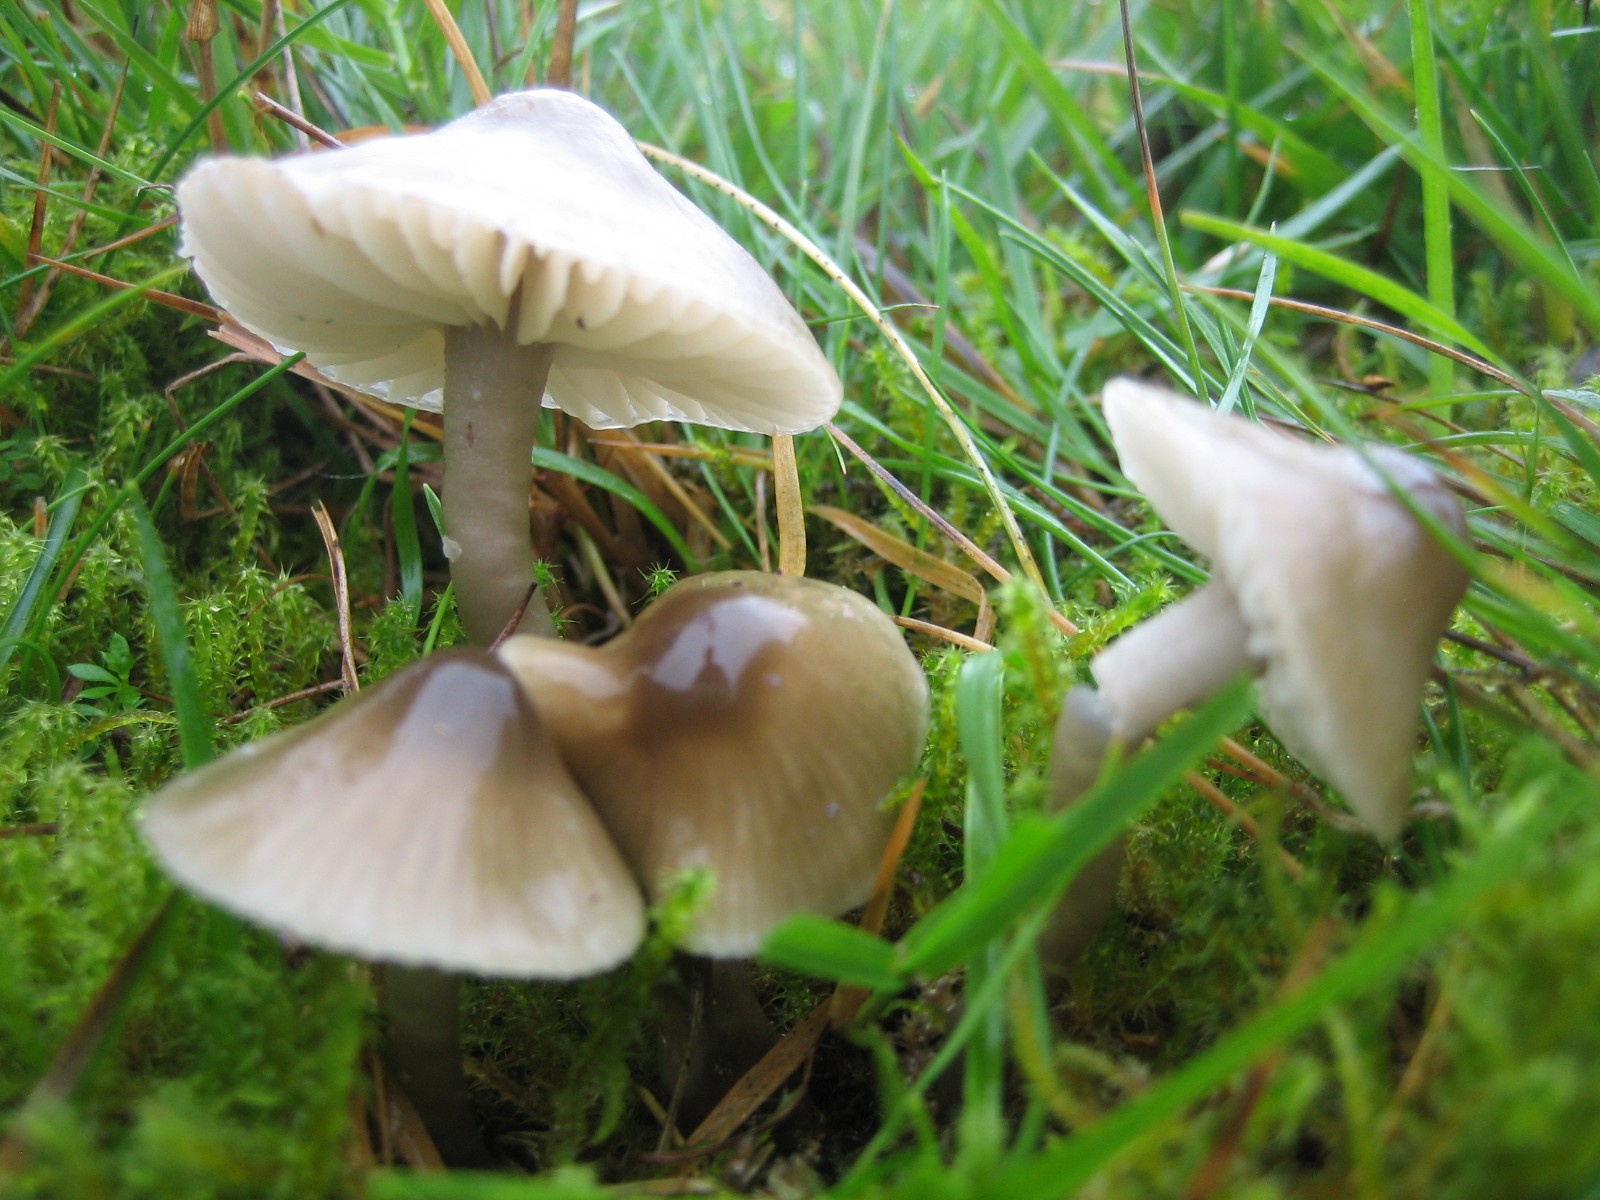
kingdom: Fungi
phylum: Basidiomycota
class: Agaricomycetes
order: Agaricales
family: Hygrophoraceae
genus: Gliophorus
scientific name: Gliophorus irrigatus
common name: slimet vokshat
